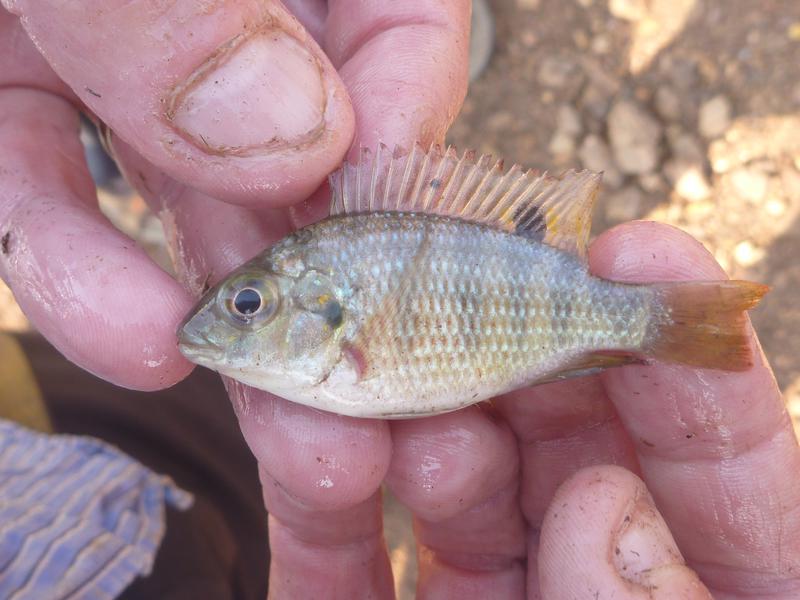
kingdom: Animalia
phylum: Chordata
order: Perciformes
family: Cichlidae
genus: Coptodon
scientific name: Coptodon rendalli
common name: Redbreast tilapia
